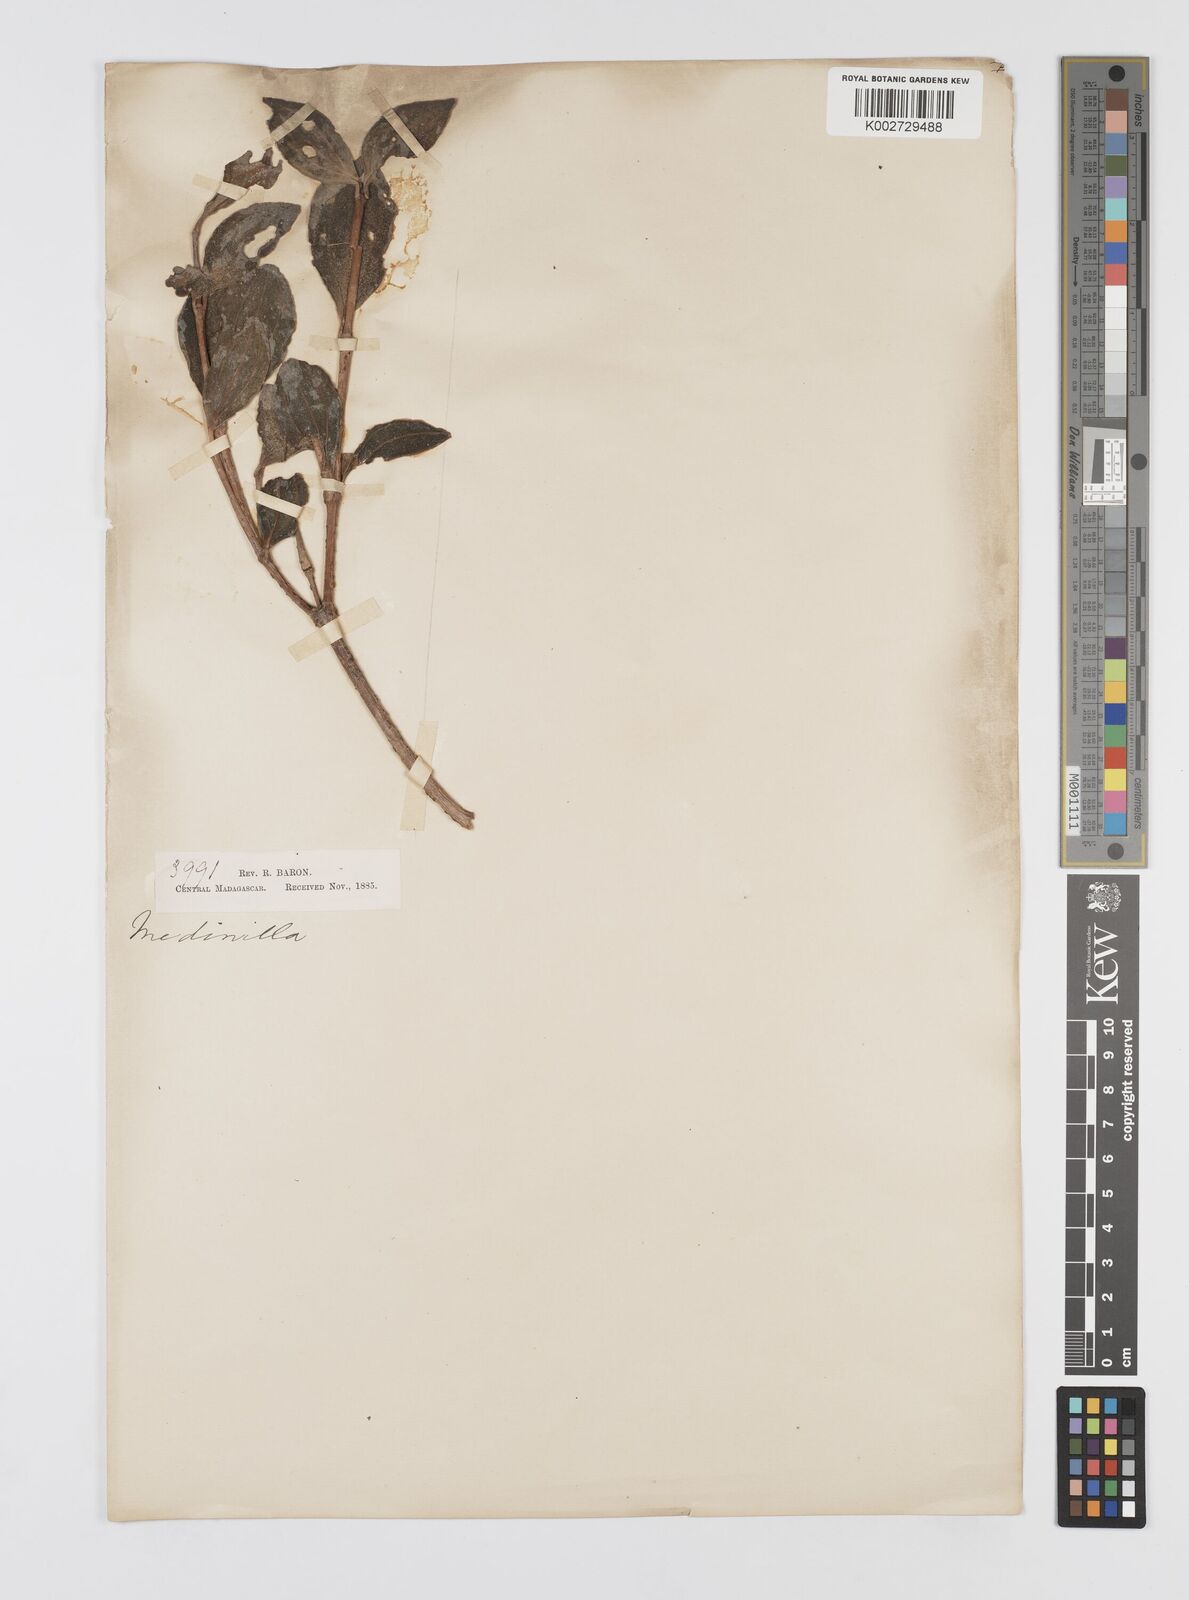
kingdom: Plantae
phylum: Tracheophyta
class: Magnoliopsida
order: Myrtales
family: Melastomataceae
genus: Medinilla
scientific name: Medinilla
